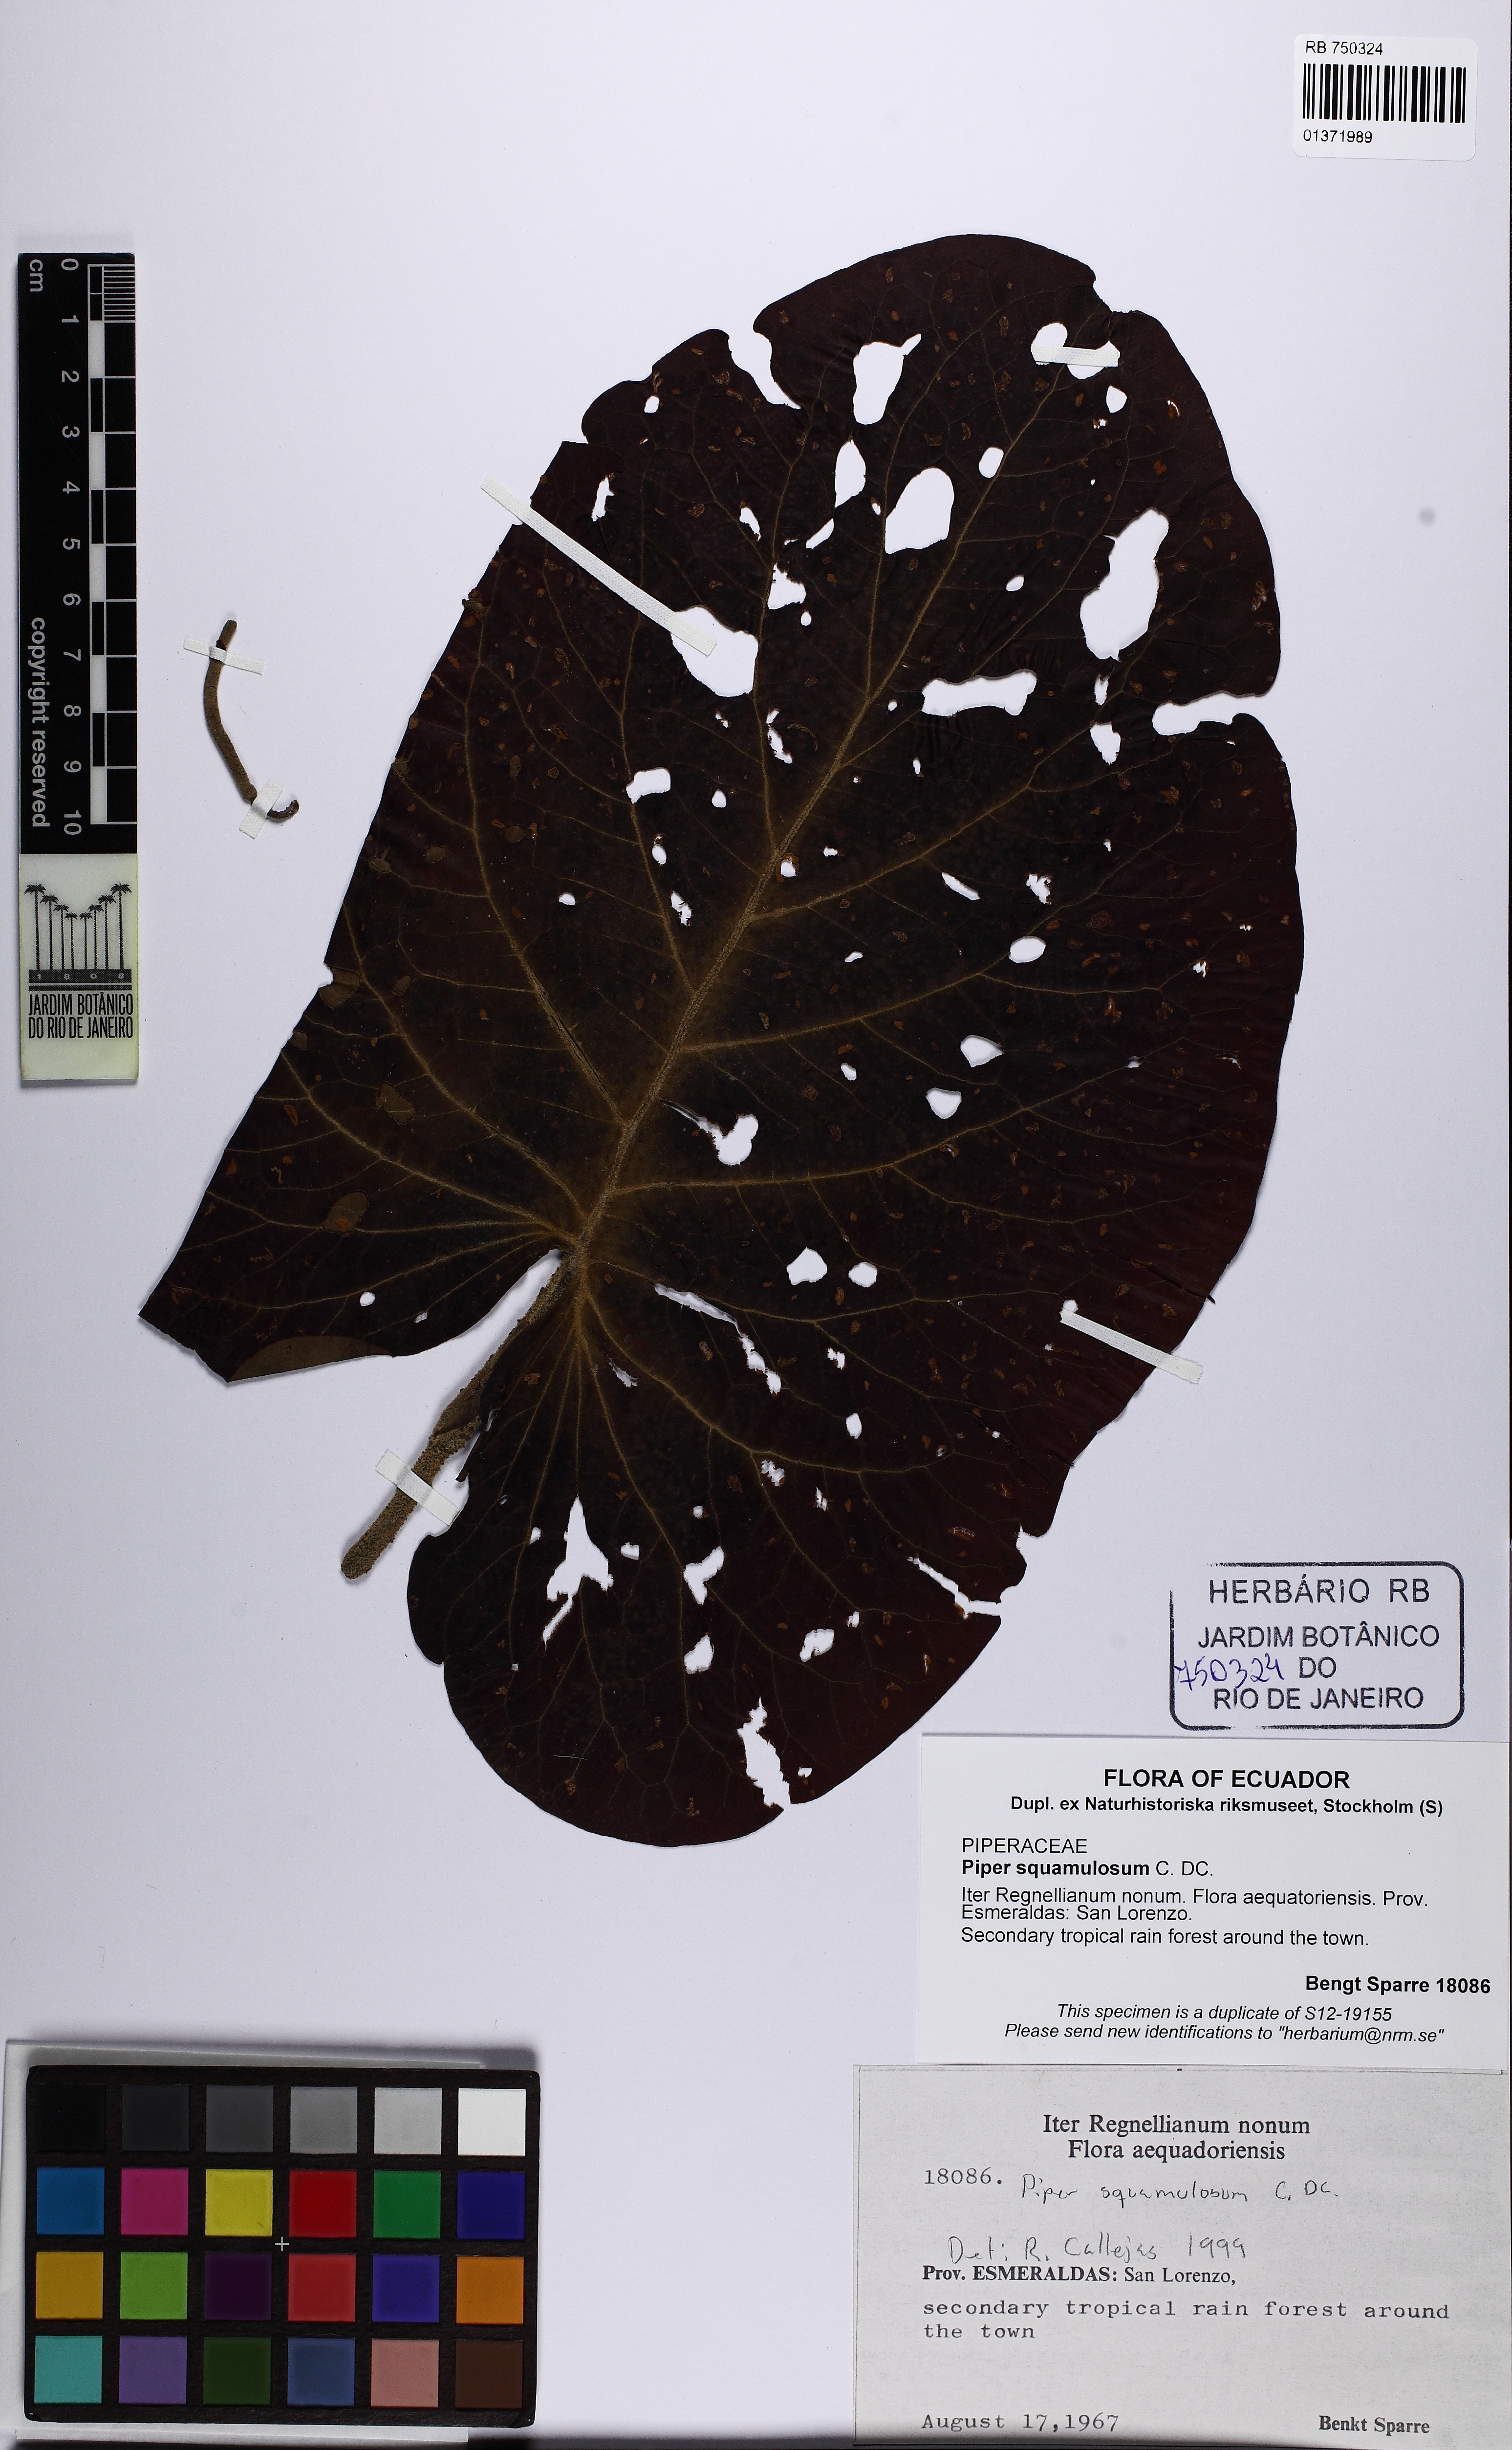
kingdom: Plantae
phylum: Tracheophyta
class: Magnoliopsida
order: Piperales
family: Piperaceae
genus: Piper
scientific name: Piper squamulosum
